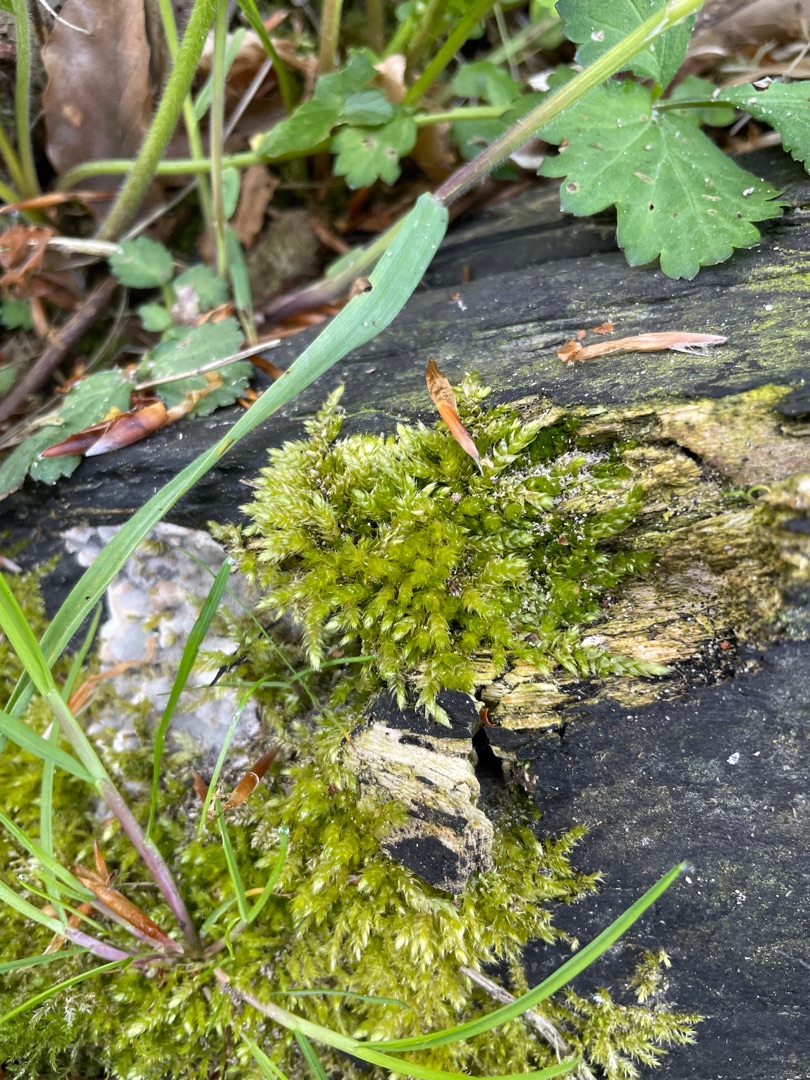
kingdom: Plantae
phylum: Bryophyta
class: Bryopsida
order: Hypnales
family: Brachytheciaceae
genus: Brachythecium
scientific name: Brachythecium rutabulum
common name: Almindelig kortkapsel
